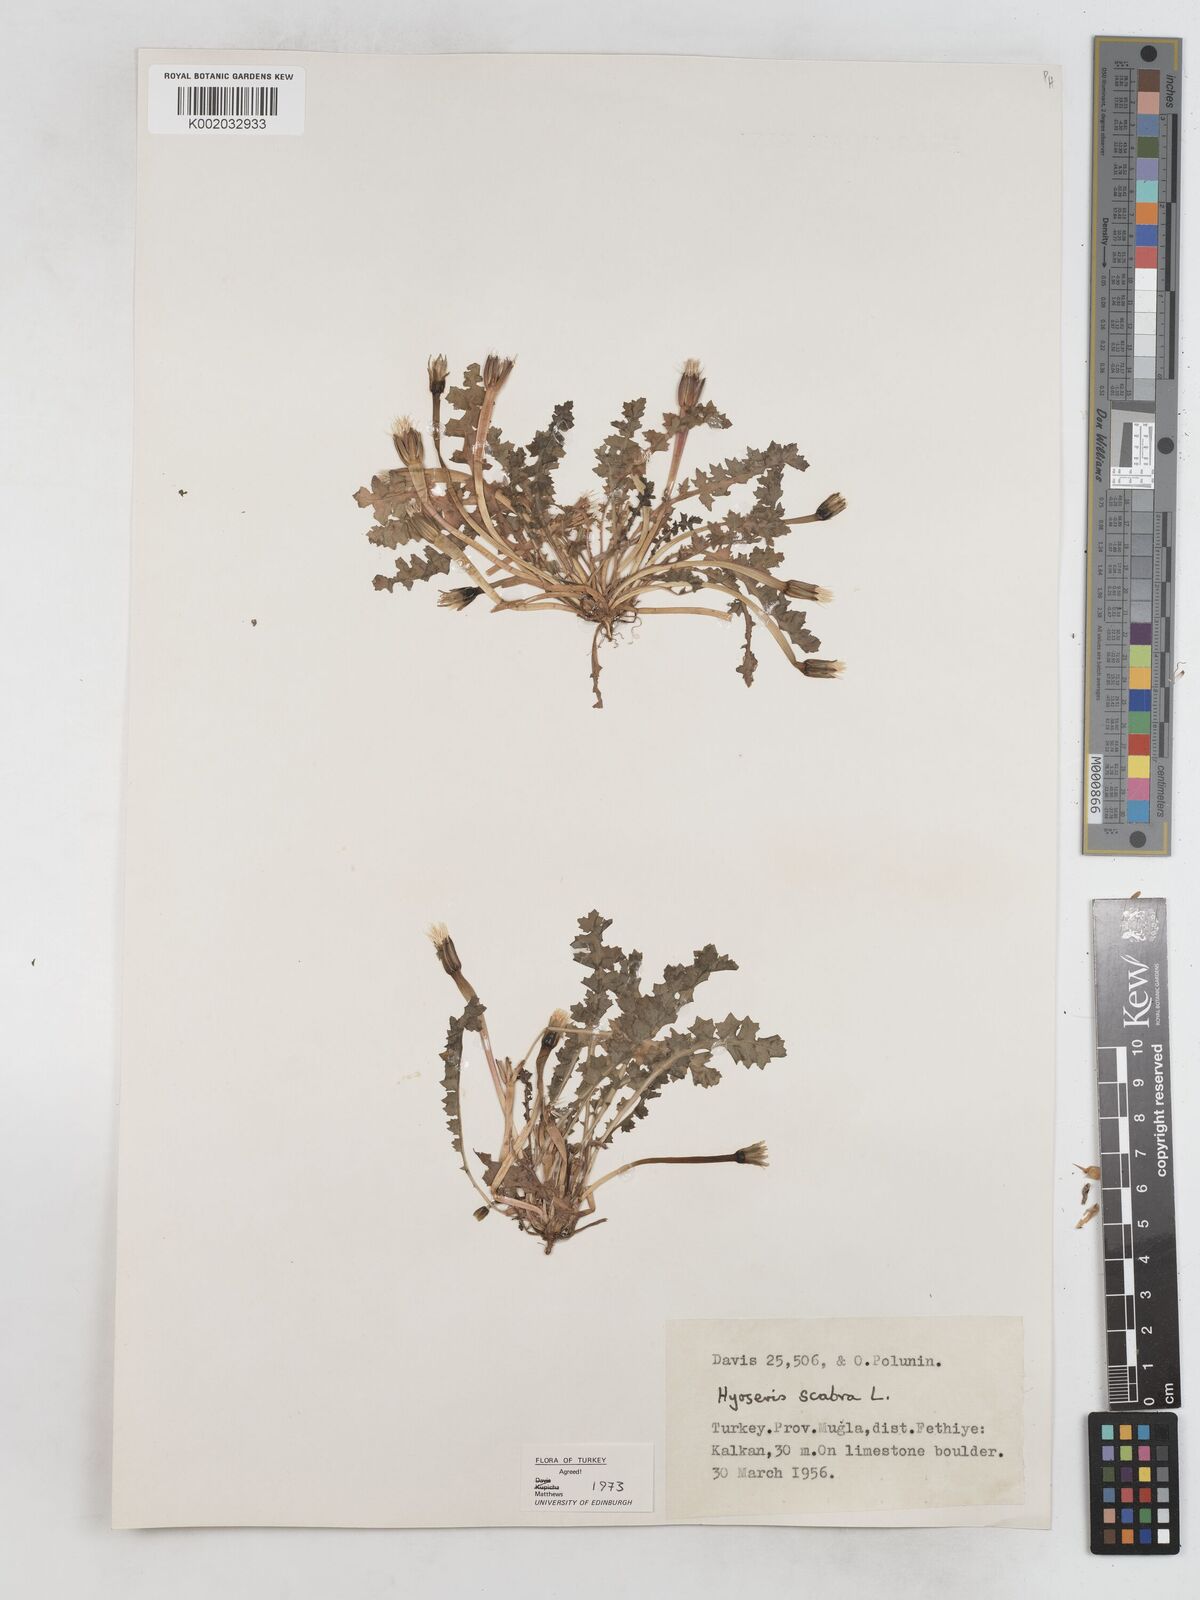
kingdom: Plantae
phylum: Tracheophyta
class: Magnoliopsida
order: Asterales
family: Asteraceae
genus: Hyoseris
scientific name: Hyoseris scabra
